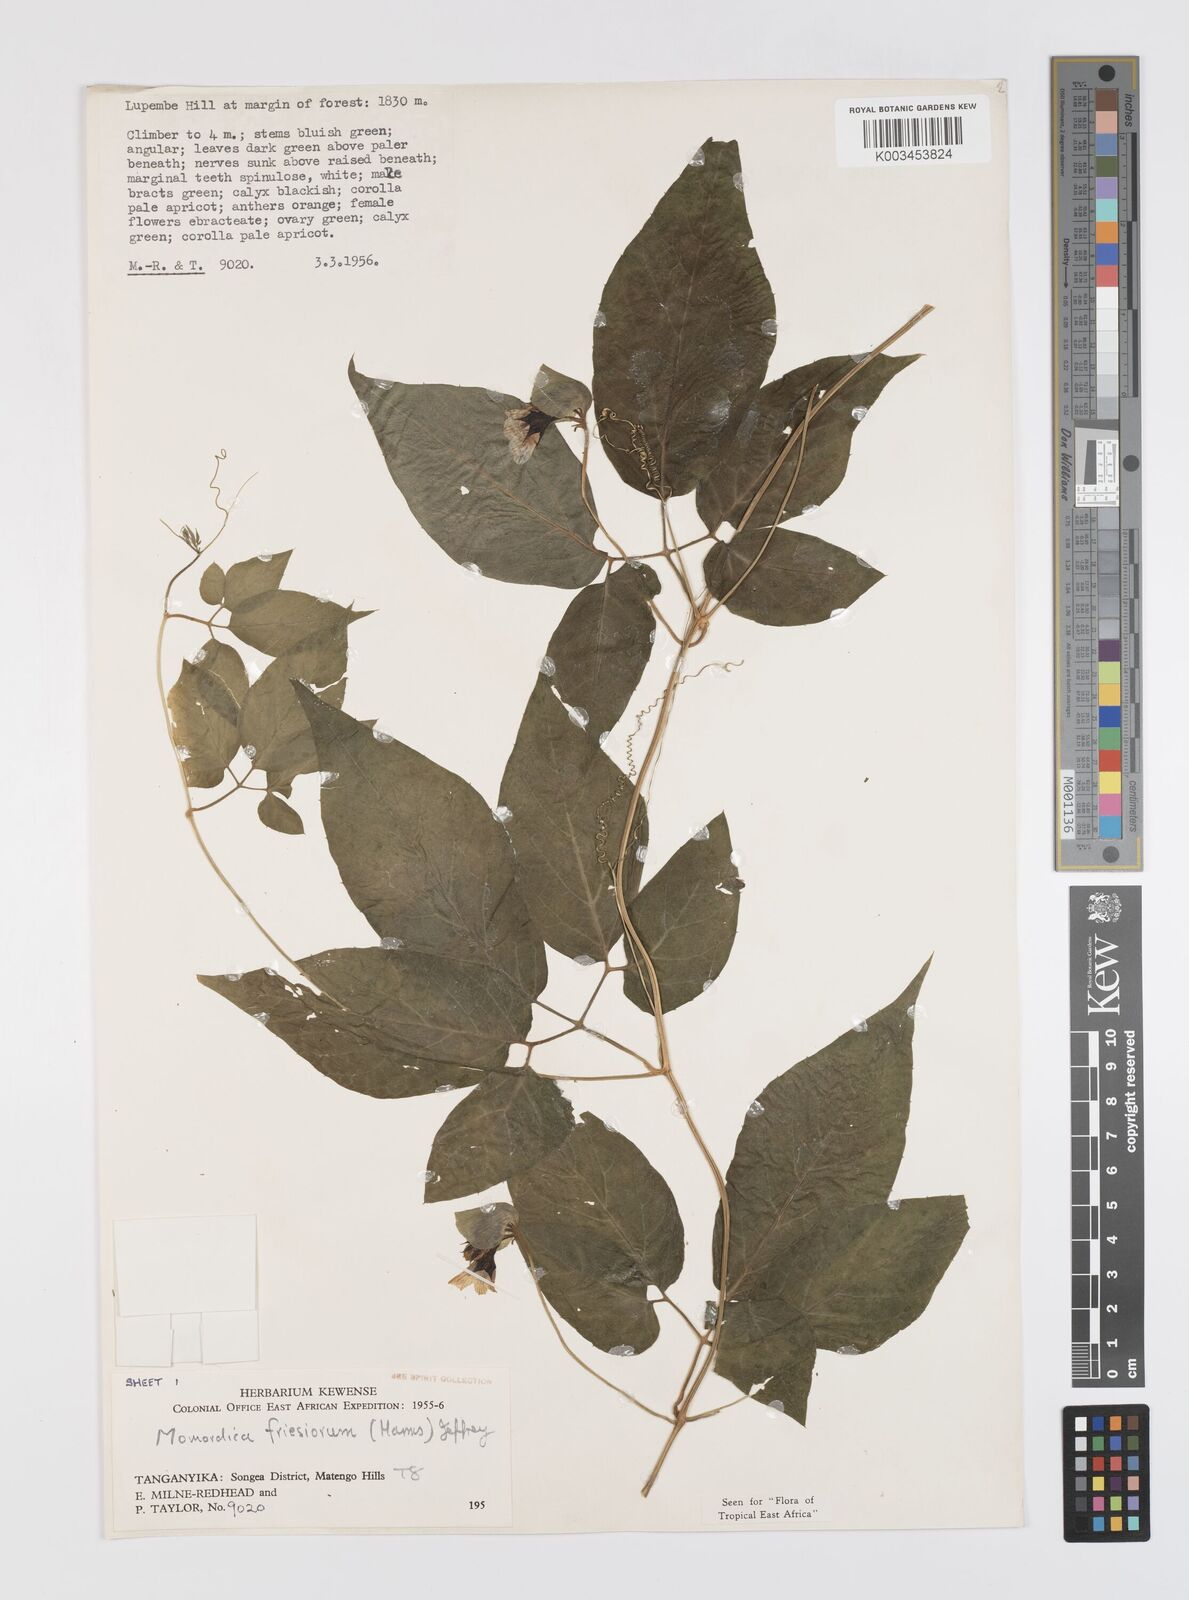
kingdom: Plantae
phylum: Tracheophyta
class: Magnoliopsida
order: Cucurbitales
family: Cucurbitaceae
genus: Momordica
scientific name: Momordica friesiorum
